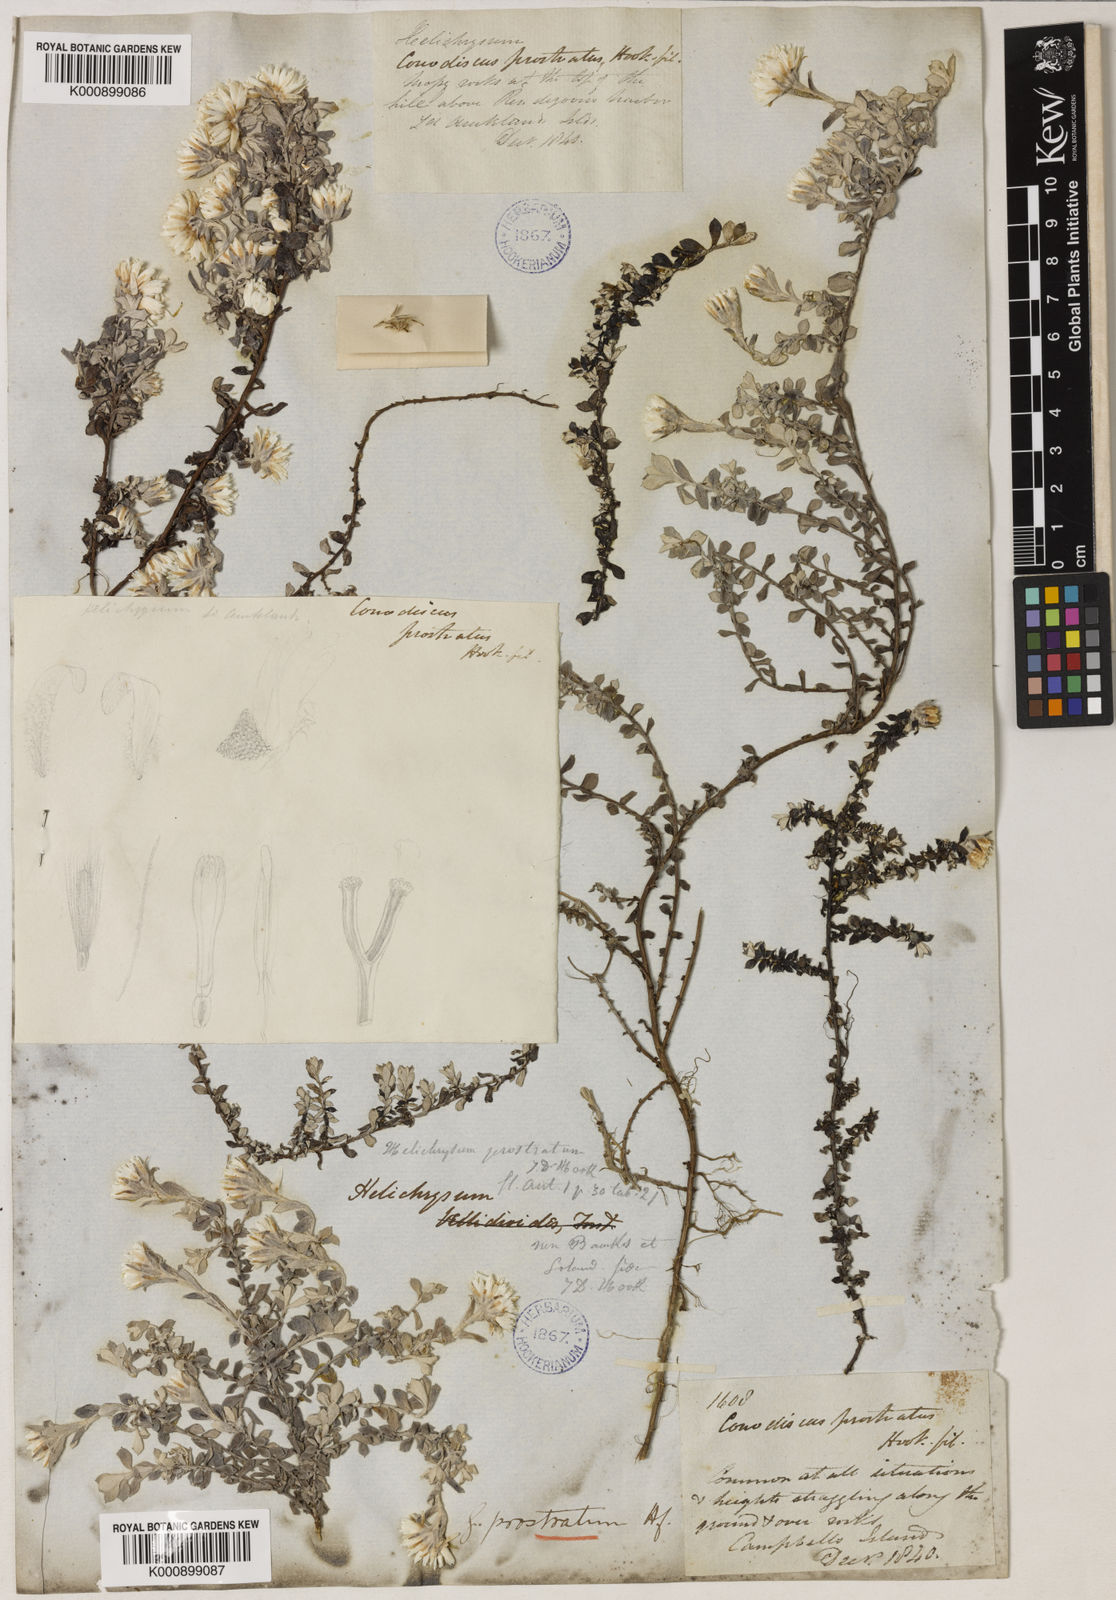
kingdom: Plantae
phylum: Tracheophyta
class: Magnoliopsida
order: Asterales
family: Asteraceae
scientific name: Asteraceae
